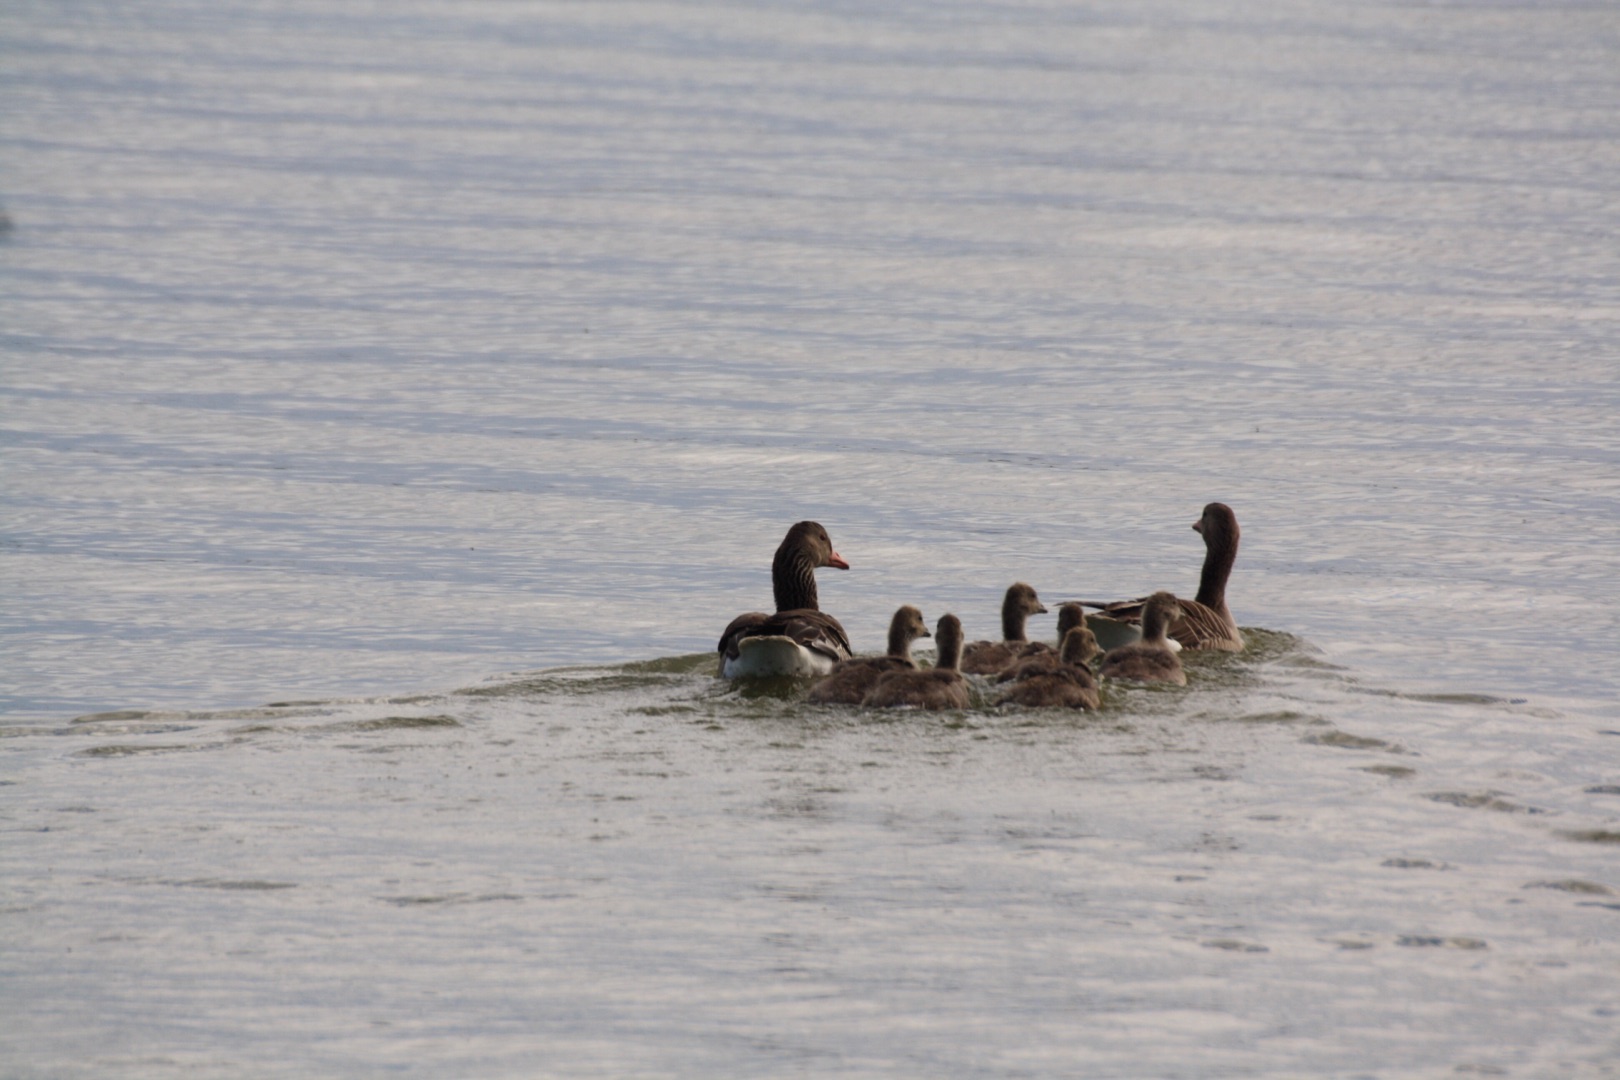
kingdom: Animalia
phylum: Chordata
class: Aves
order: Anseriformes
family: Anatidae
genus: Anser
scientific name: Anser anser
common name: Grågås
